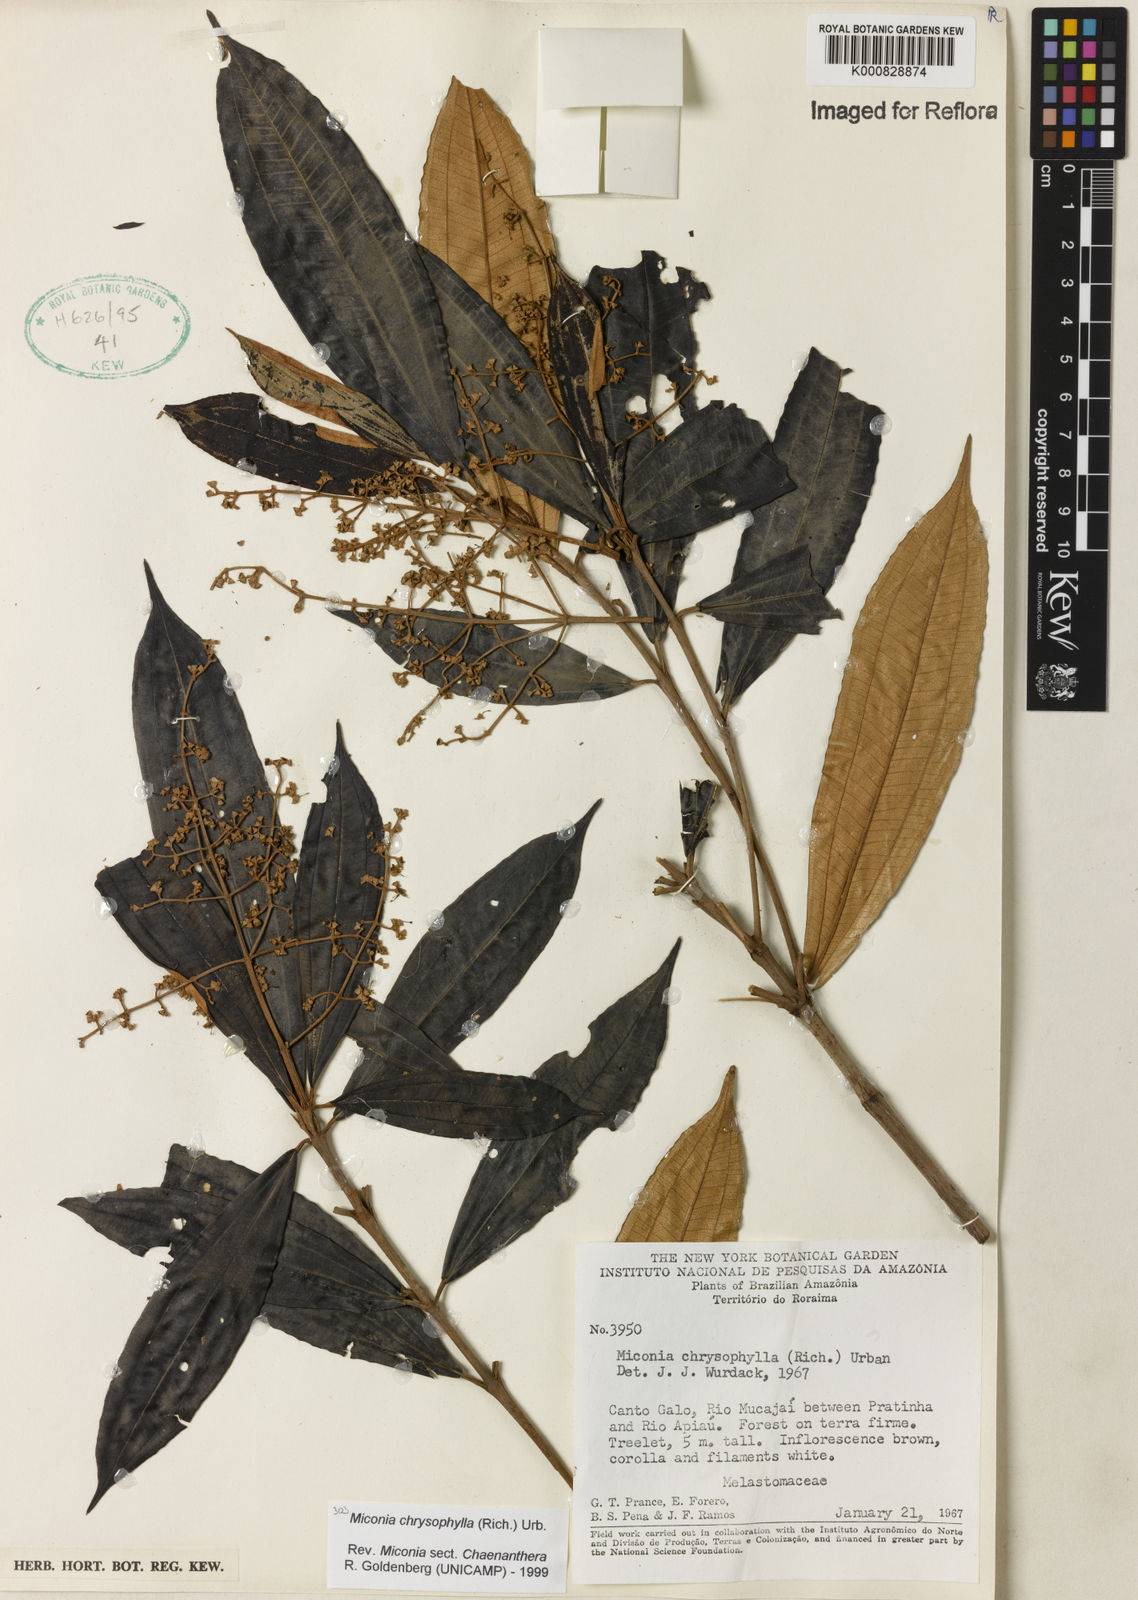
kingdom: Plantae
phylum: Tracheophyta
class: Magnoliopsida
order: Myrtales
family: Melastomataceae
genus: Miconia
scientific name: Miconia chrysophylla
